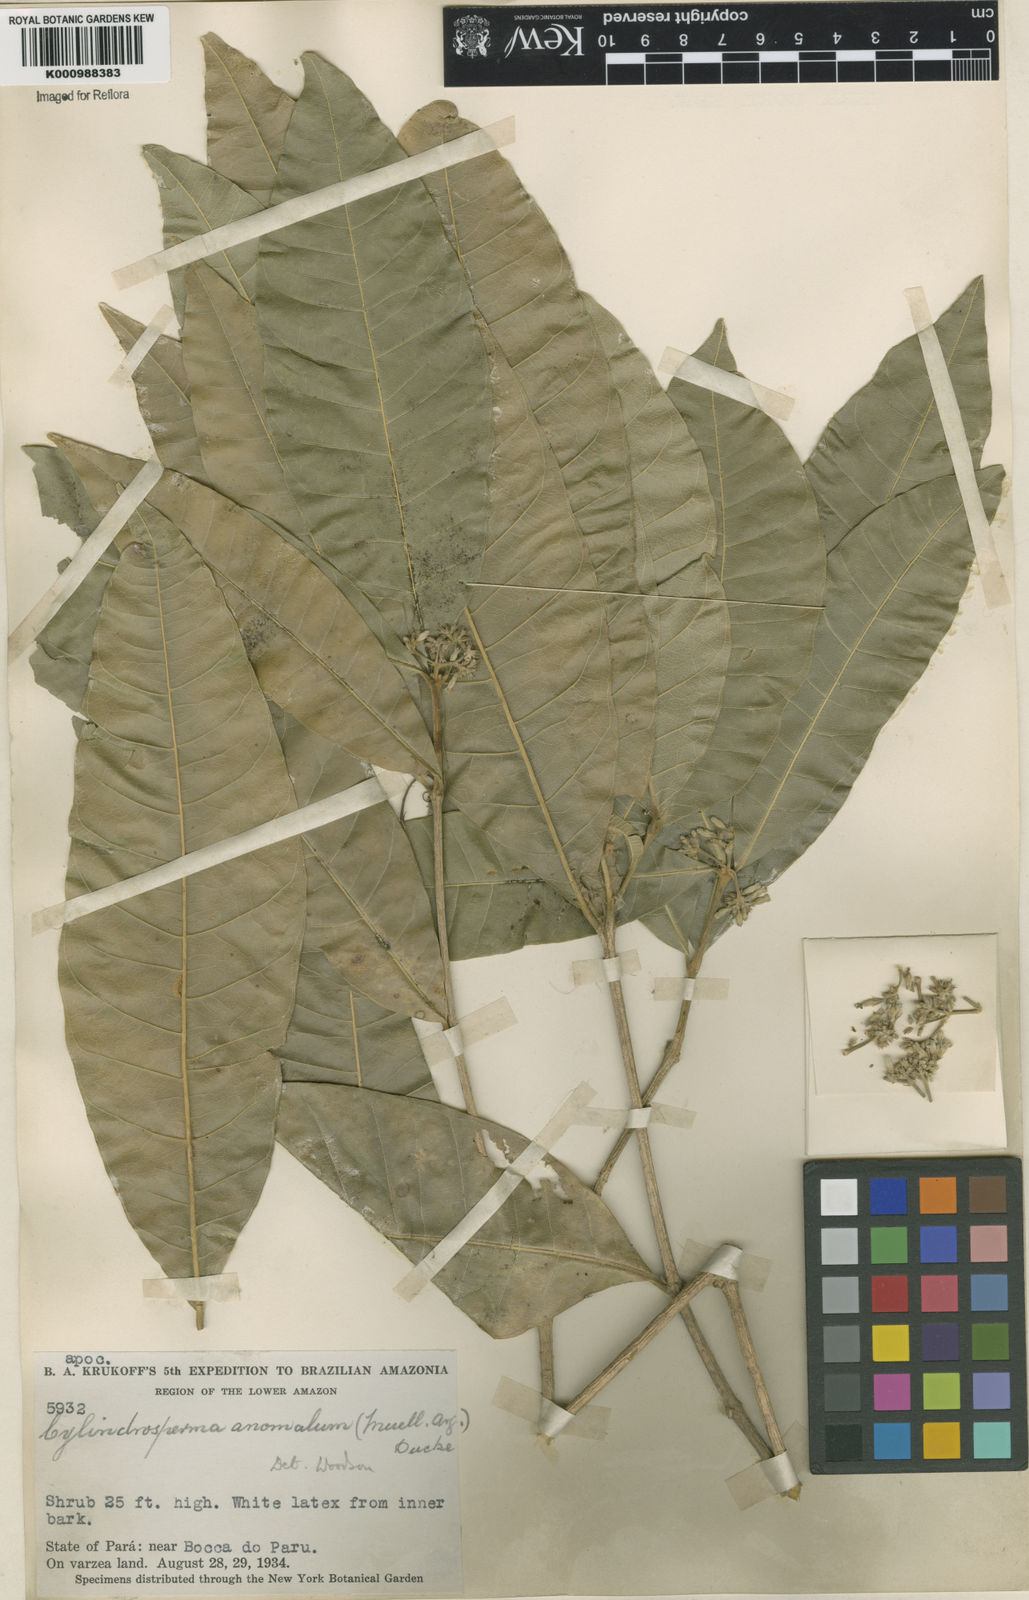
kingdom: Plantae
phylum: Tracheophyta
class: Magnoliopsida
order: Gentianales
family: Apocynaceae
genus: Microplumeria
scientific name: Microplumeria
